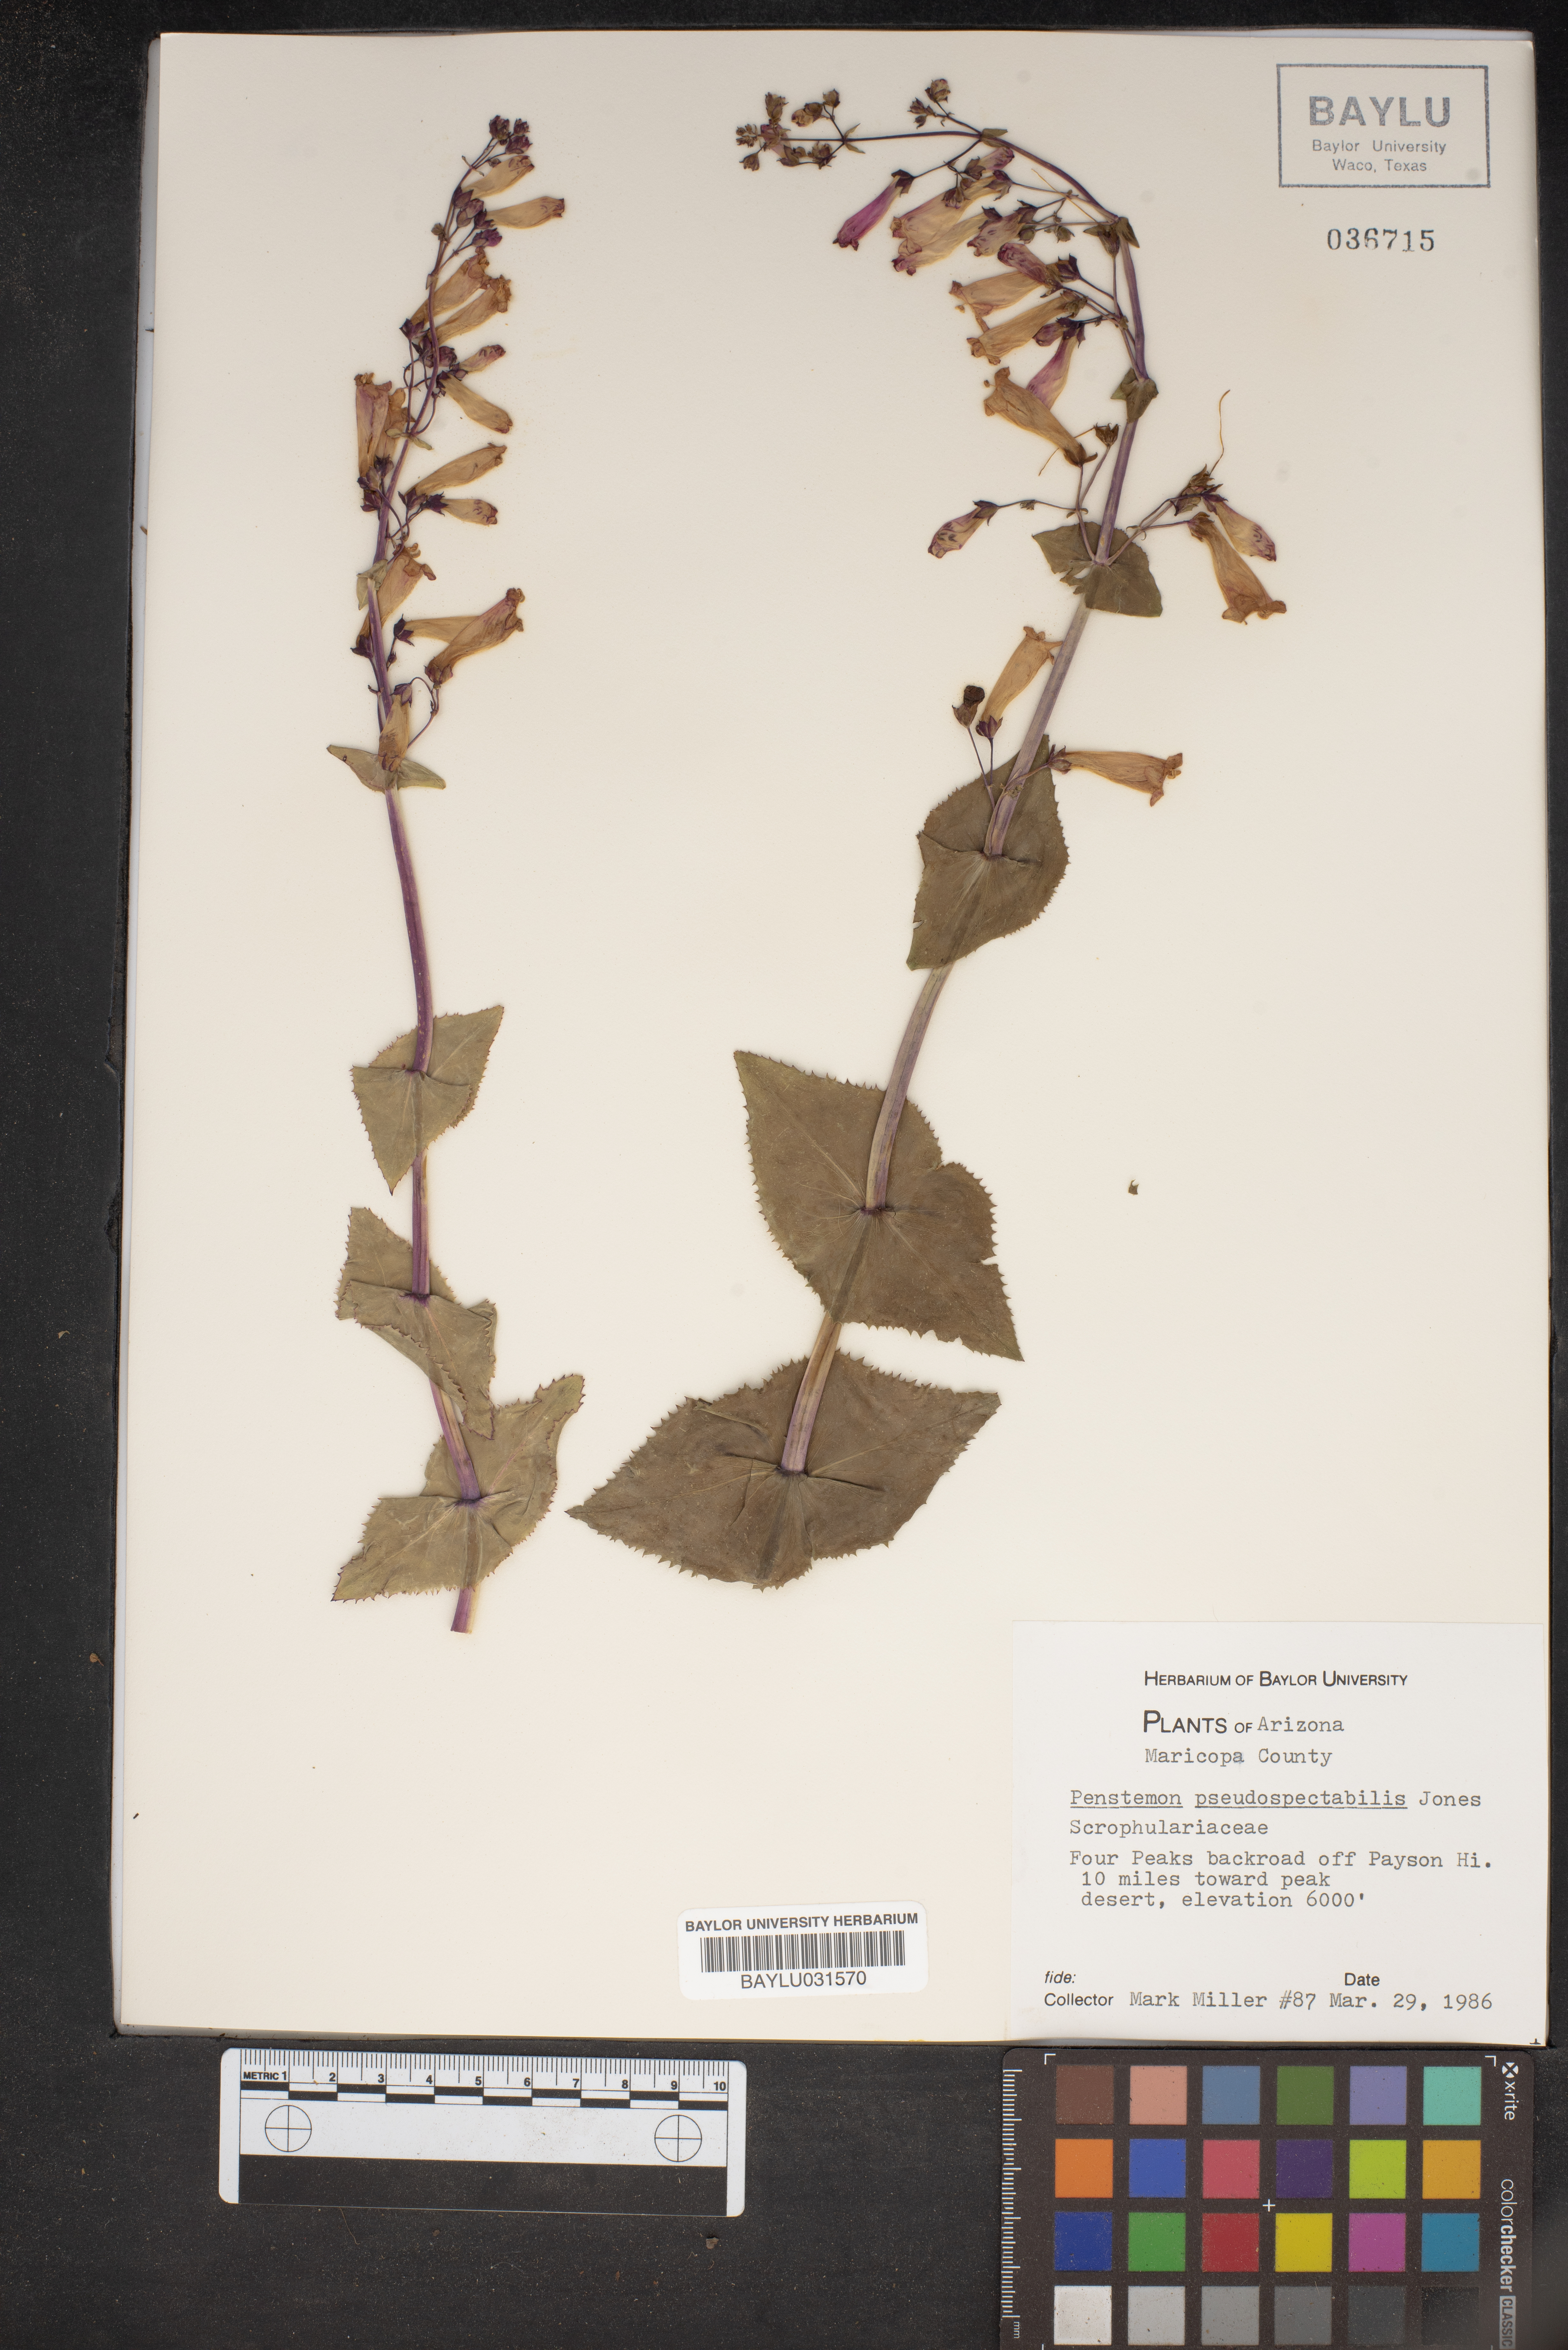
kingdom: Plantae
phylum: Tracheophyta
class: Magnoliopsida
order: Lamiales
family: Plantaginaceae
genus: Penstemon
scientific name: Penstemon pseudospectabilis
